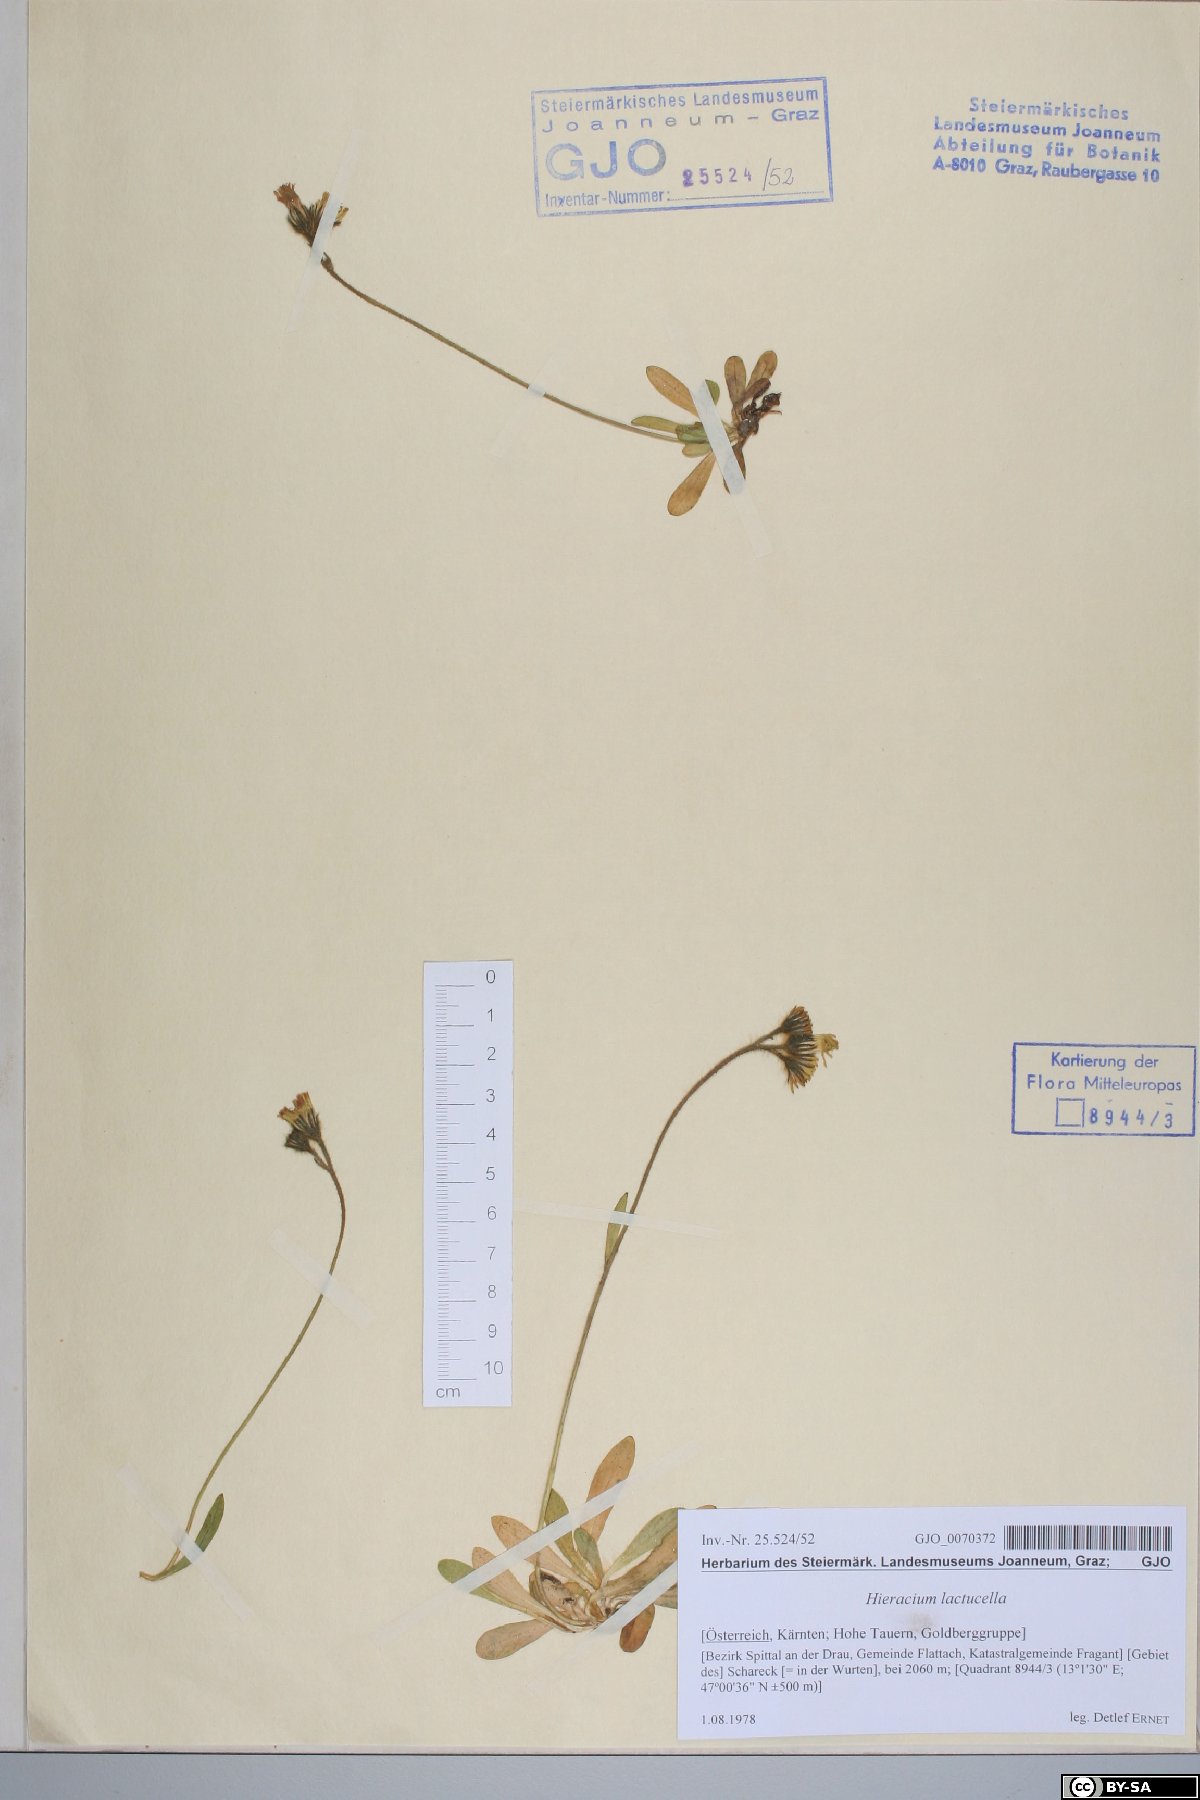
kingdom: Plantae
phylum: Tracheophyta
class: Magnoliopsida
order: Asterales
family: Asteraceae
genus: Pilosella
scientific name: Pilosella lactucella
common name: Glaucous fox-and-cubs
